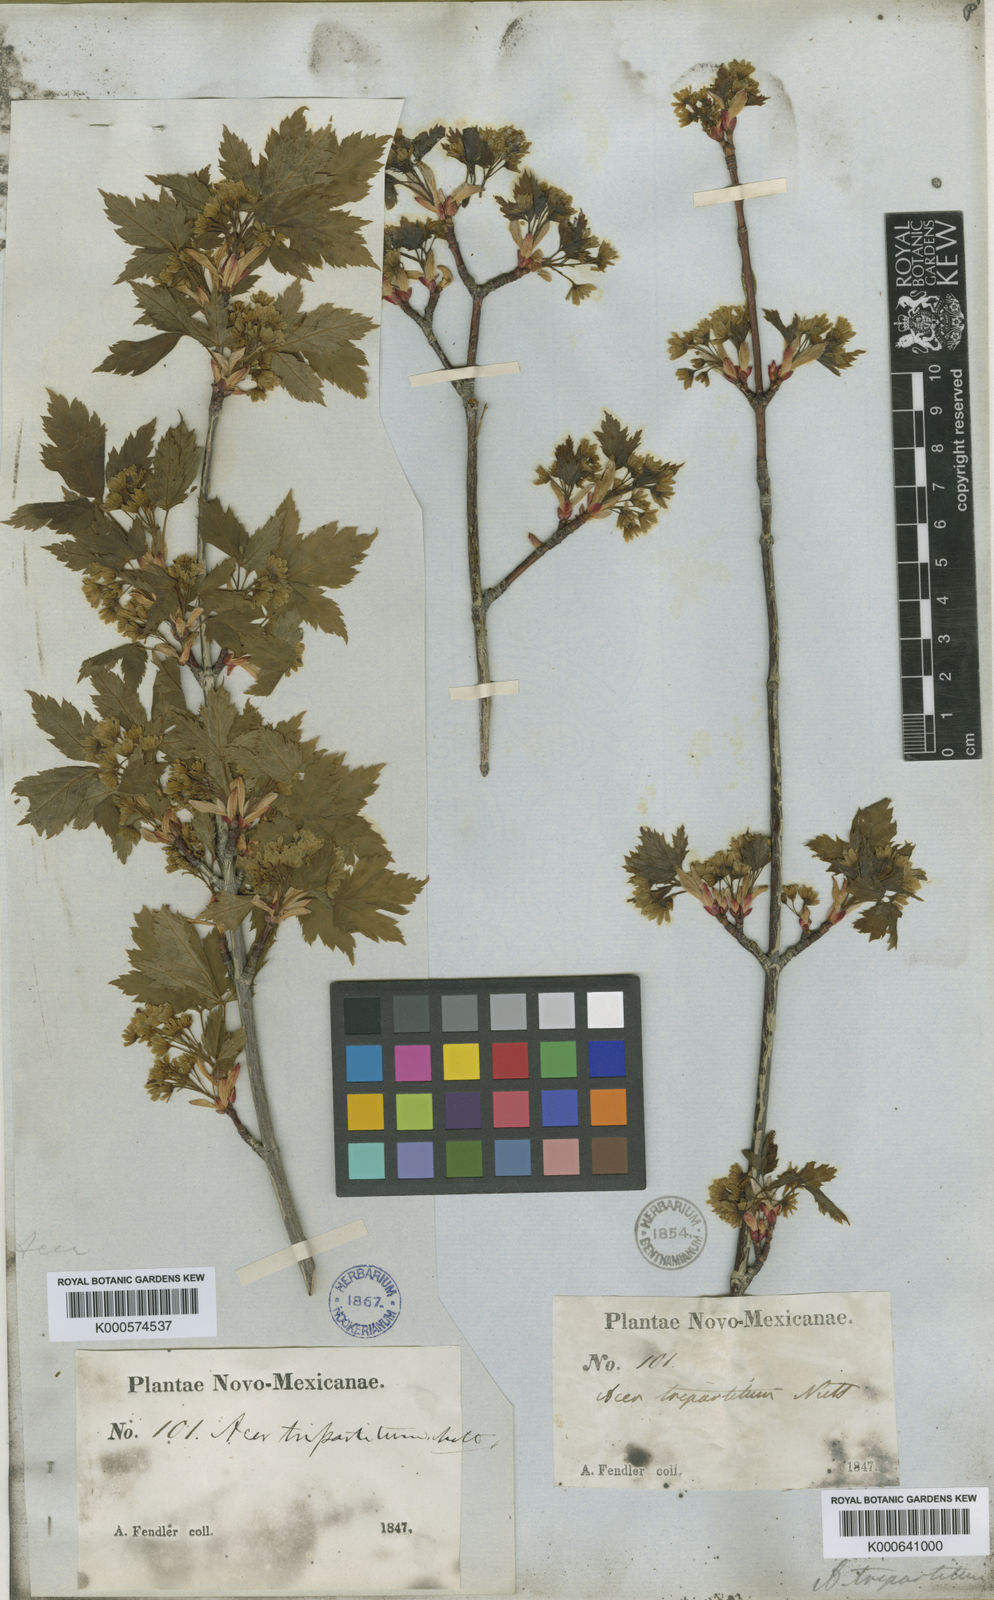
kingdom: Plantae
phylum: Tracheophyta
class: Magnoliopsida
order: Sapindales
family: Sapindaceae
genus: Acer
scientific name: Acer glabrum
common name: Rocky mountain maple
